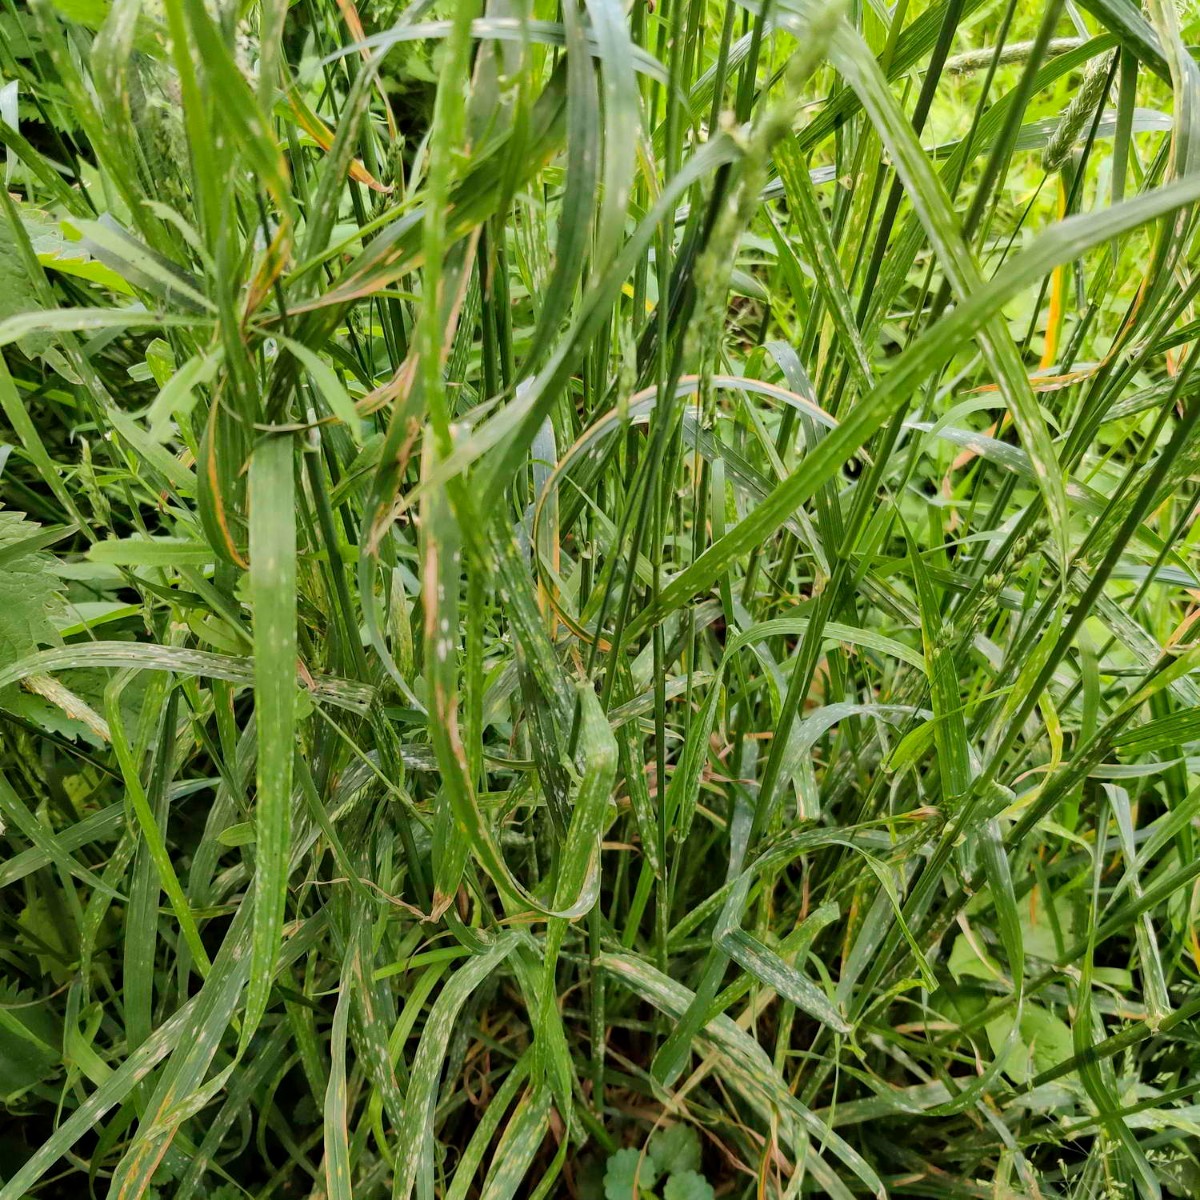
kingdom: Fungi
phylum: Ascomycota
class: Leotiomycetes
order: Helotiales
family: Erysiphaceae
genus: Blumeria
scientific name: Blumeria graminis
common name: græs-meldug
